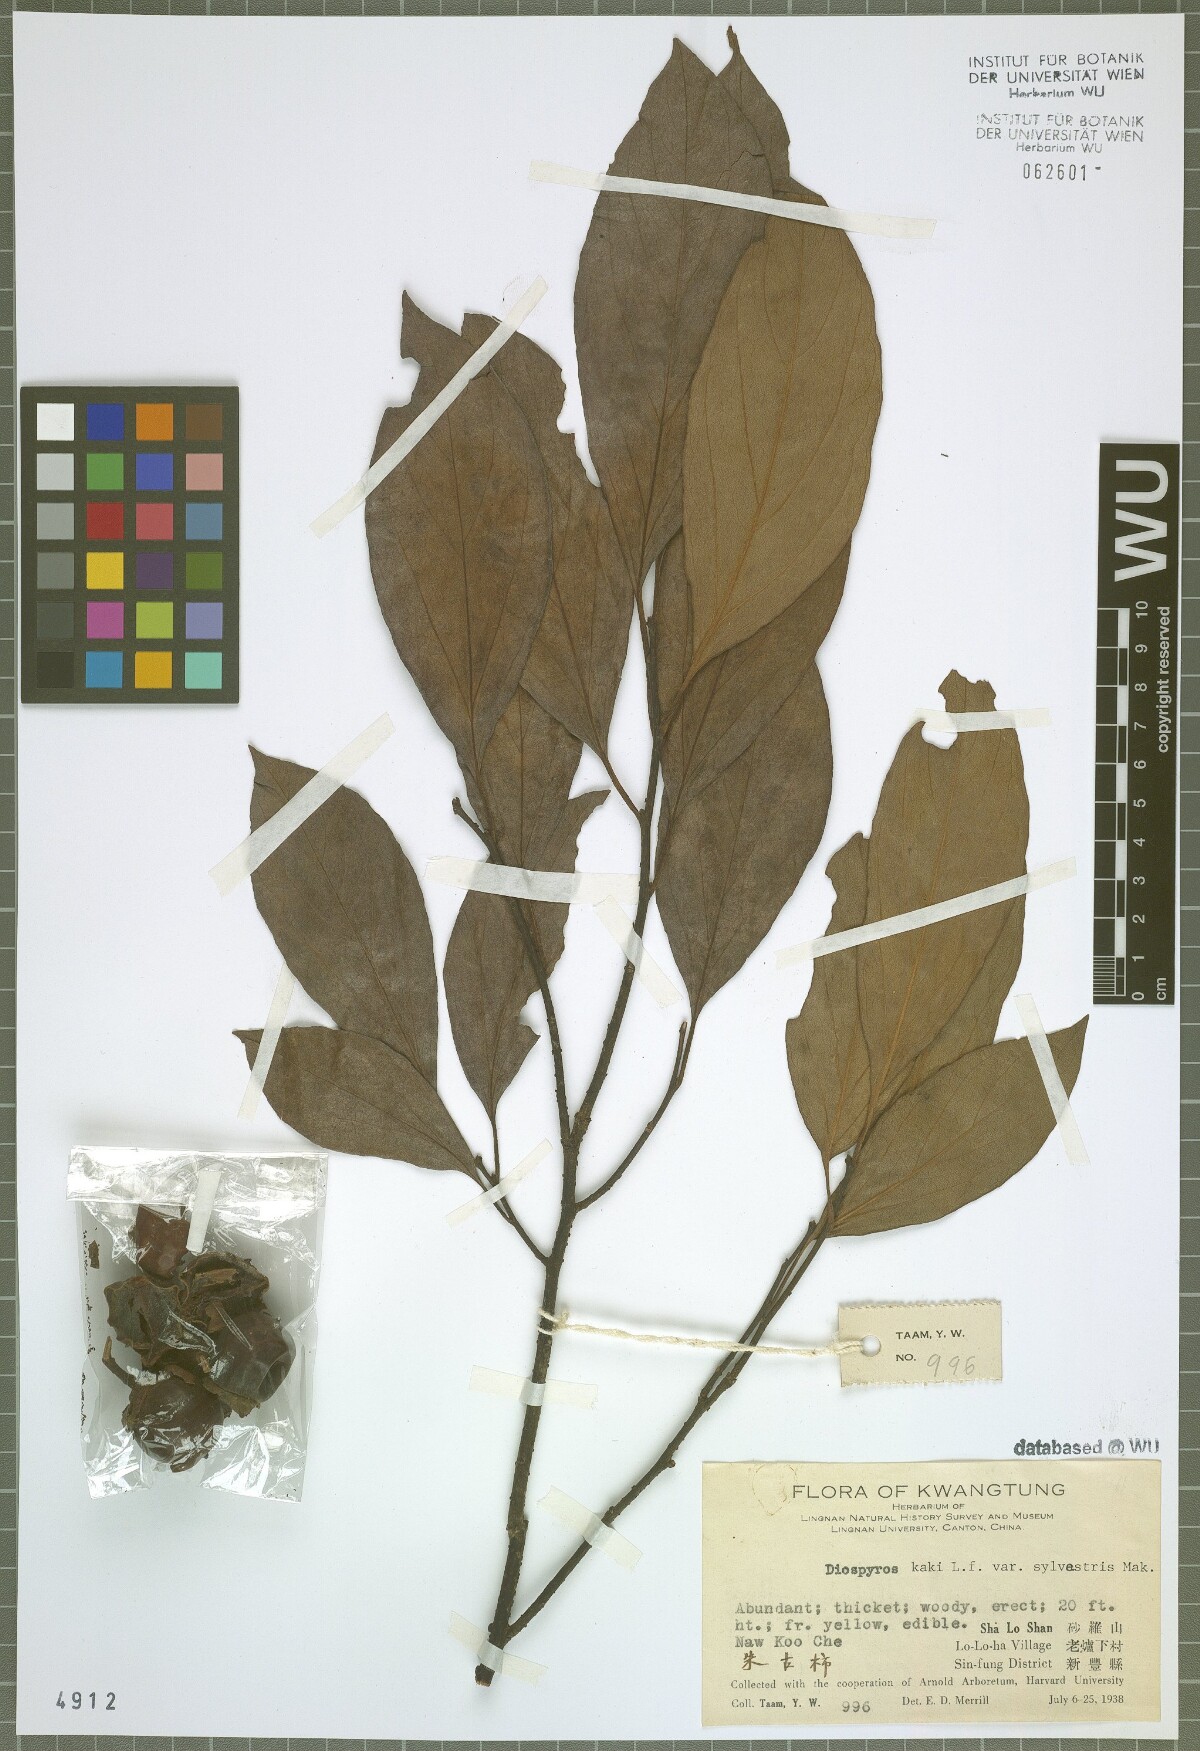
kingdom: Plantae
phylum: Tracheophyta
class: Magnoliopsida
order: Ericales
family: Ebenaceae
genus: Diospyros
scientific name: Diospyros kaki
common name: Persimmon
